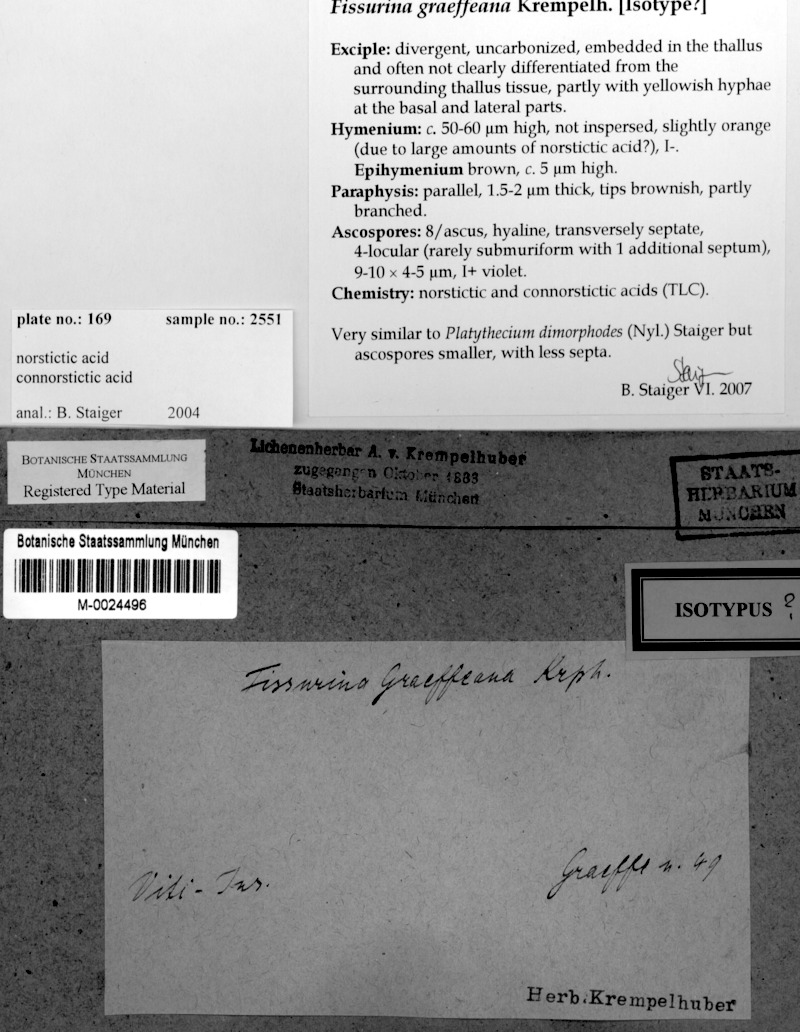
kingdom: Fungi
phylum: Ascomycota
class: Lecanoromycetes
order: Ostropales
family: Graphidaceae
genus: Graphis
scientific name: Graphis
